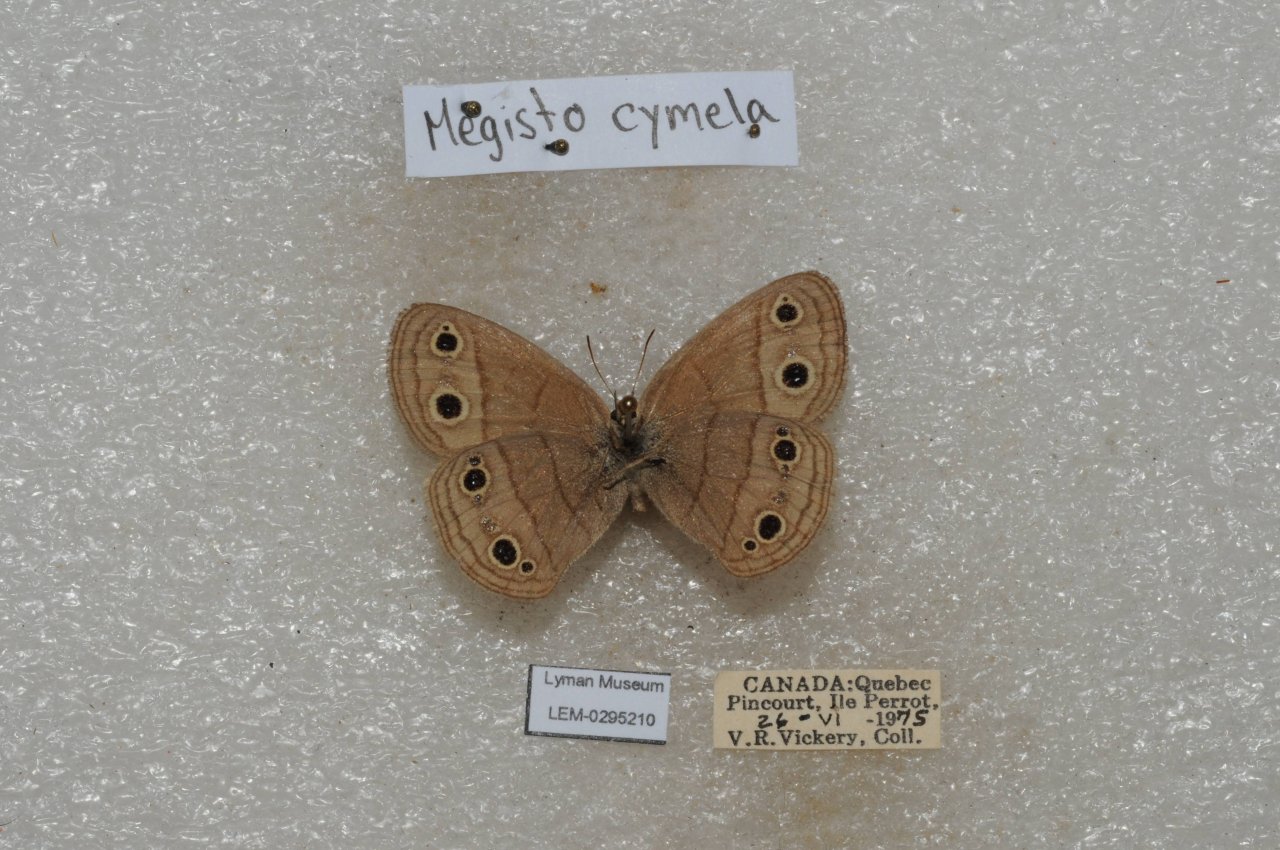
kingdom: Animalia
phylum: Arthropoda
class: Insecta
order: Lepidoptera
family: Nymphalidae
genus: Euptychia
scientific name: Euptychia cymela
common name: Little Wood Satyr
